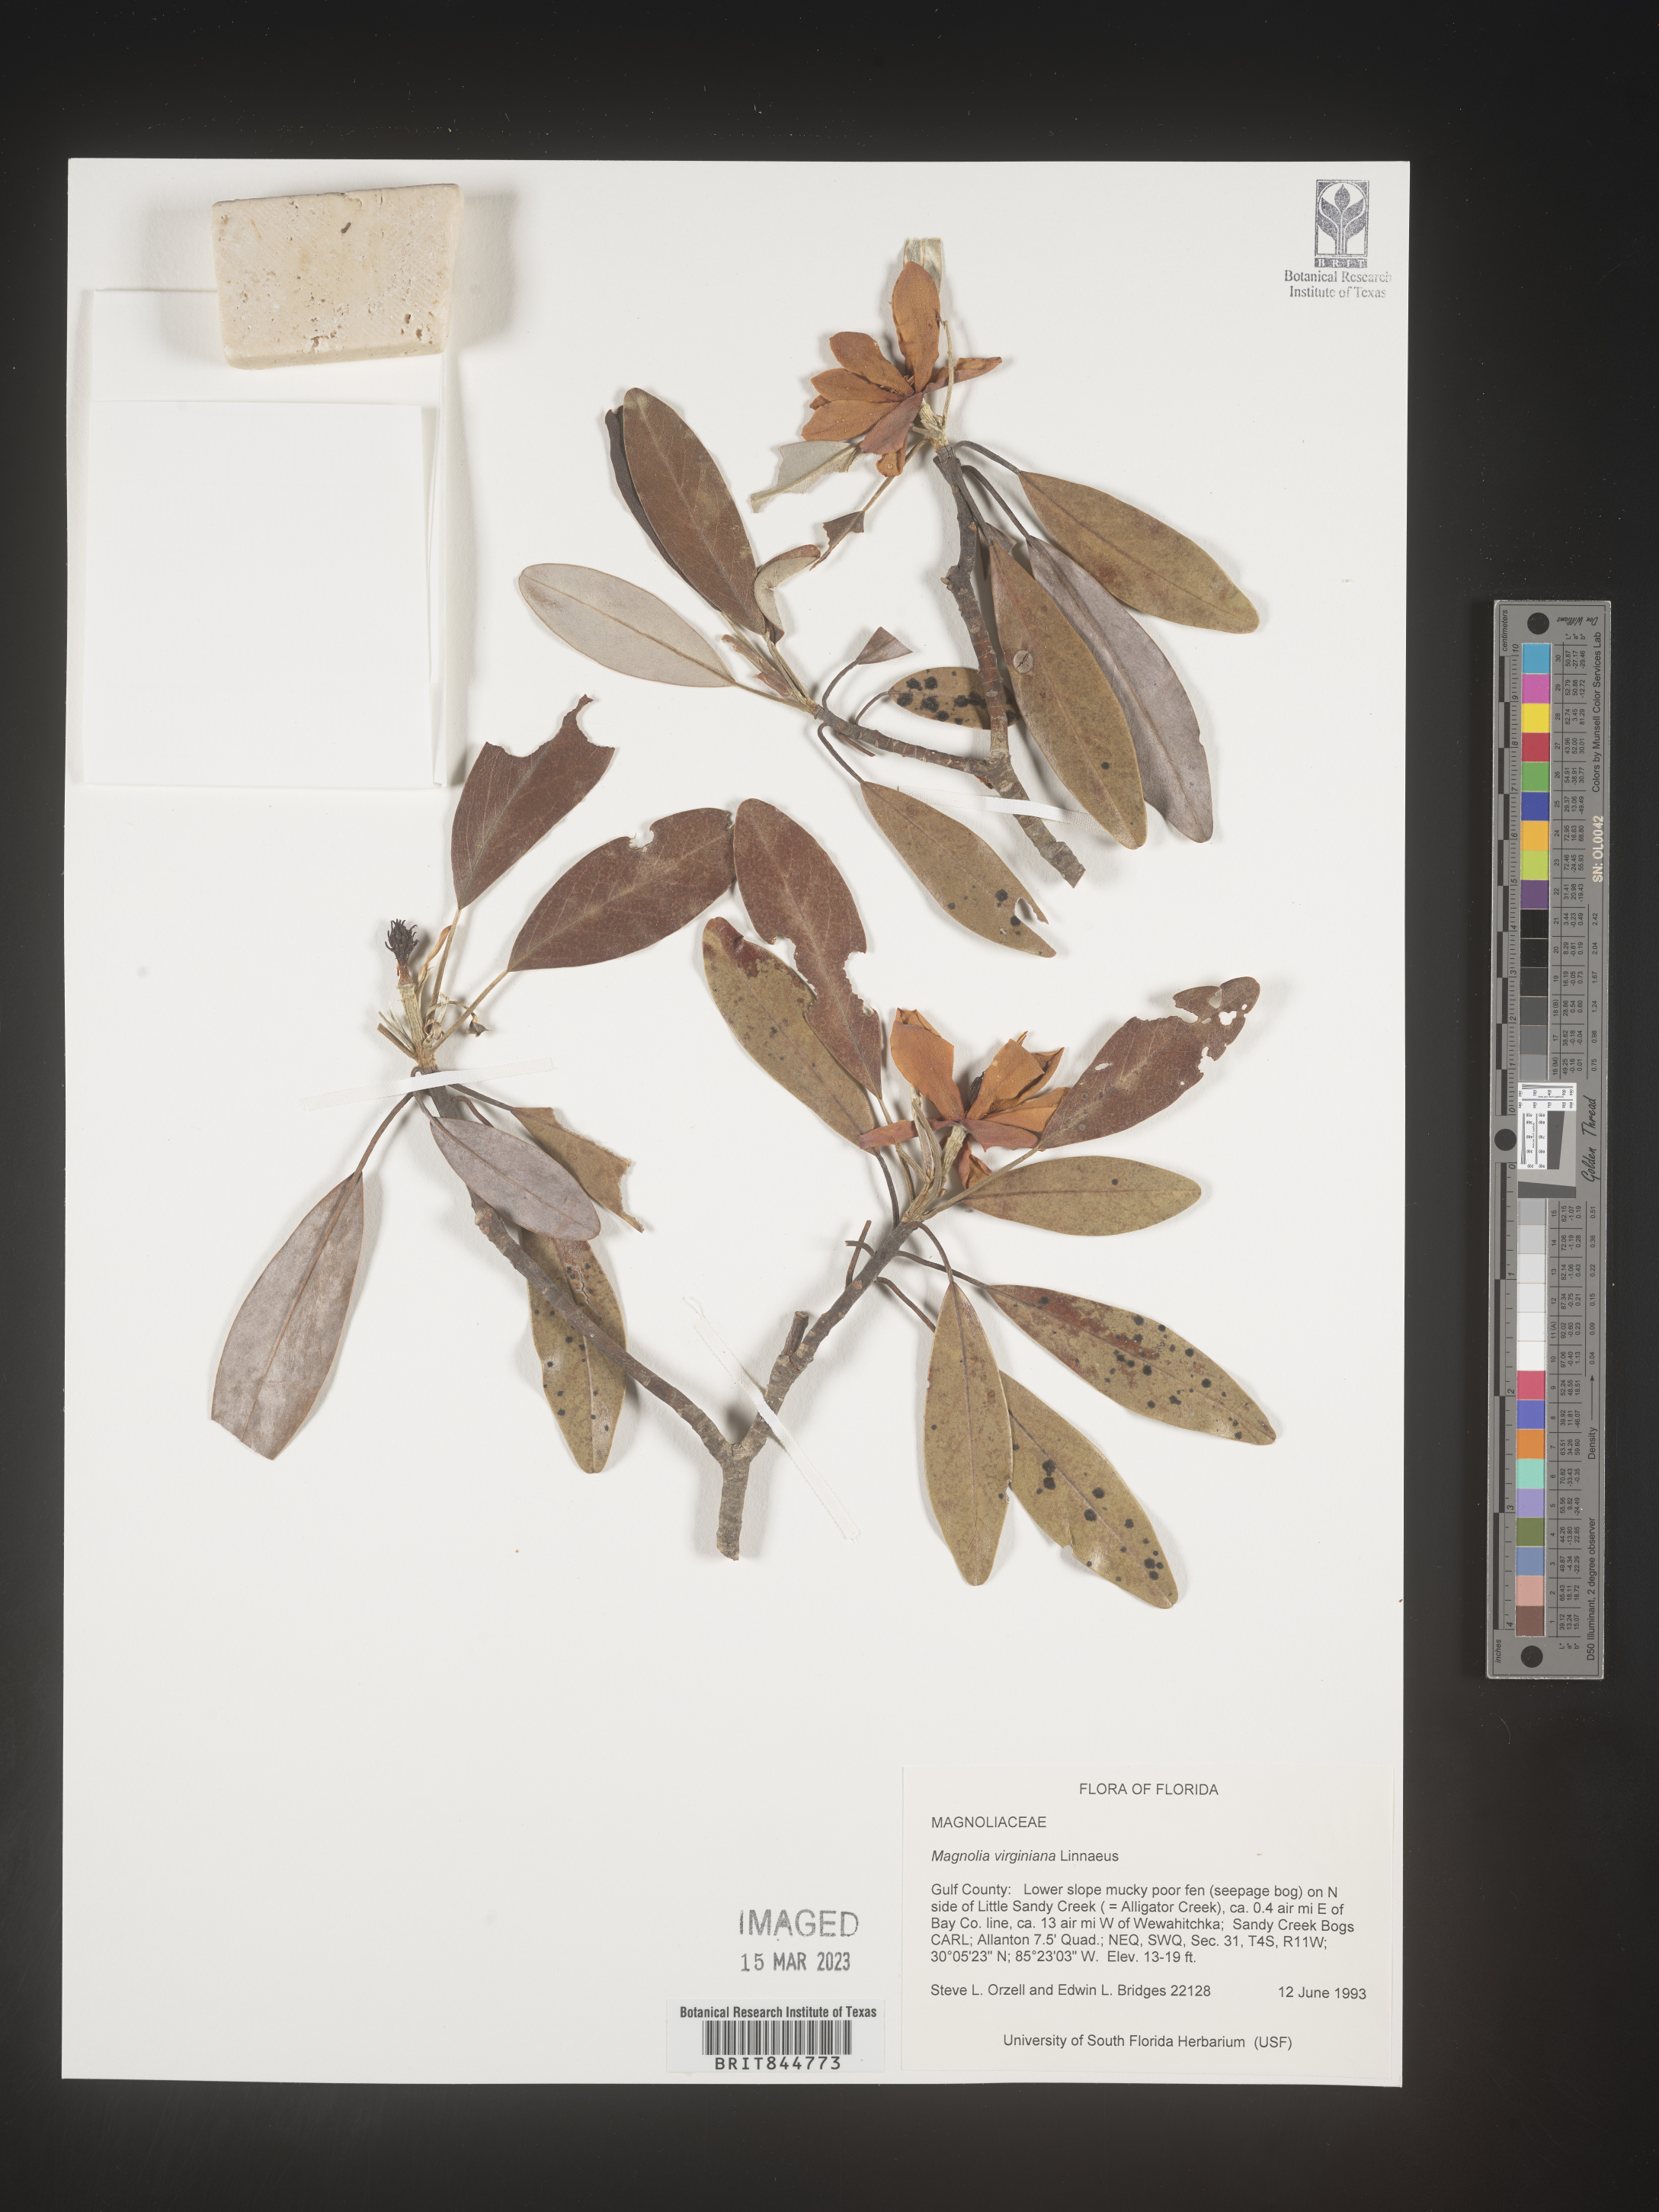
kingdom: Plantae
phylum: Tracheophyta
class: Magnoliopsida
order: Magnoliales
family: Magnoliaceae
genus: Magnolia
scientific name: Magnolia virginiana
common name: Swamp bay
